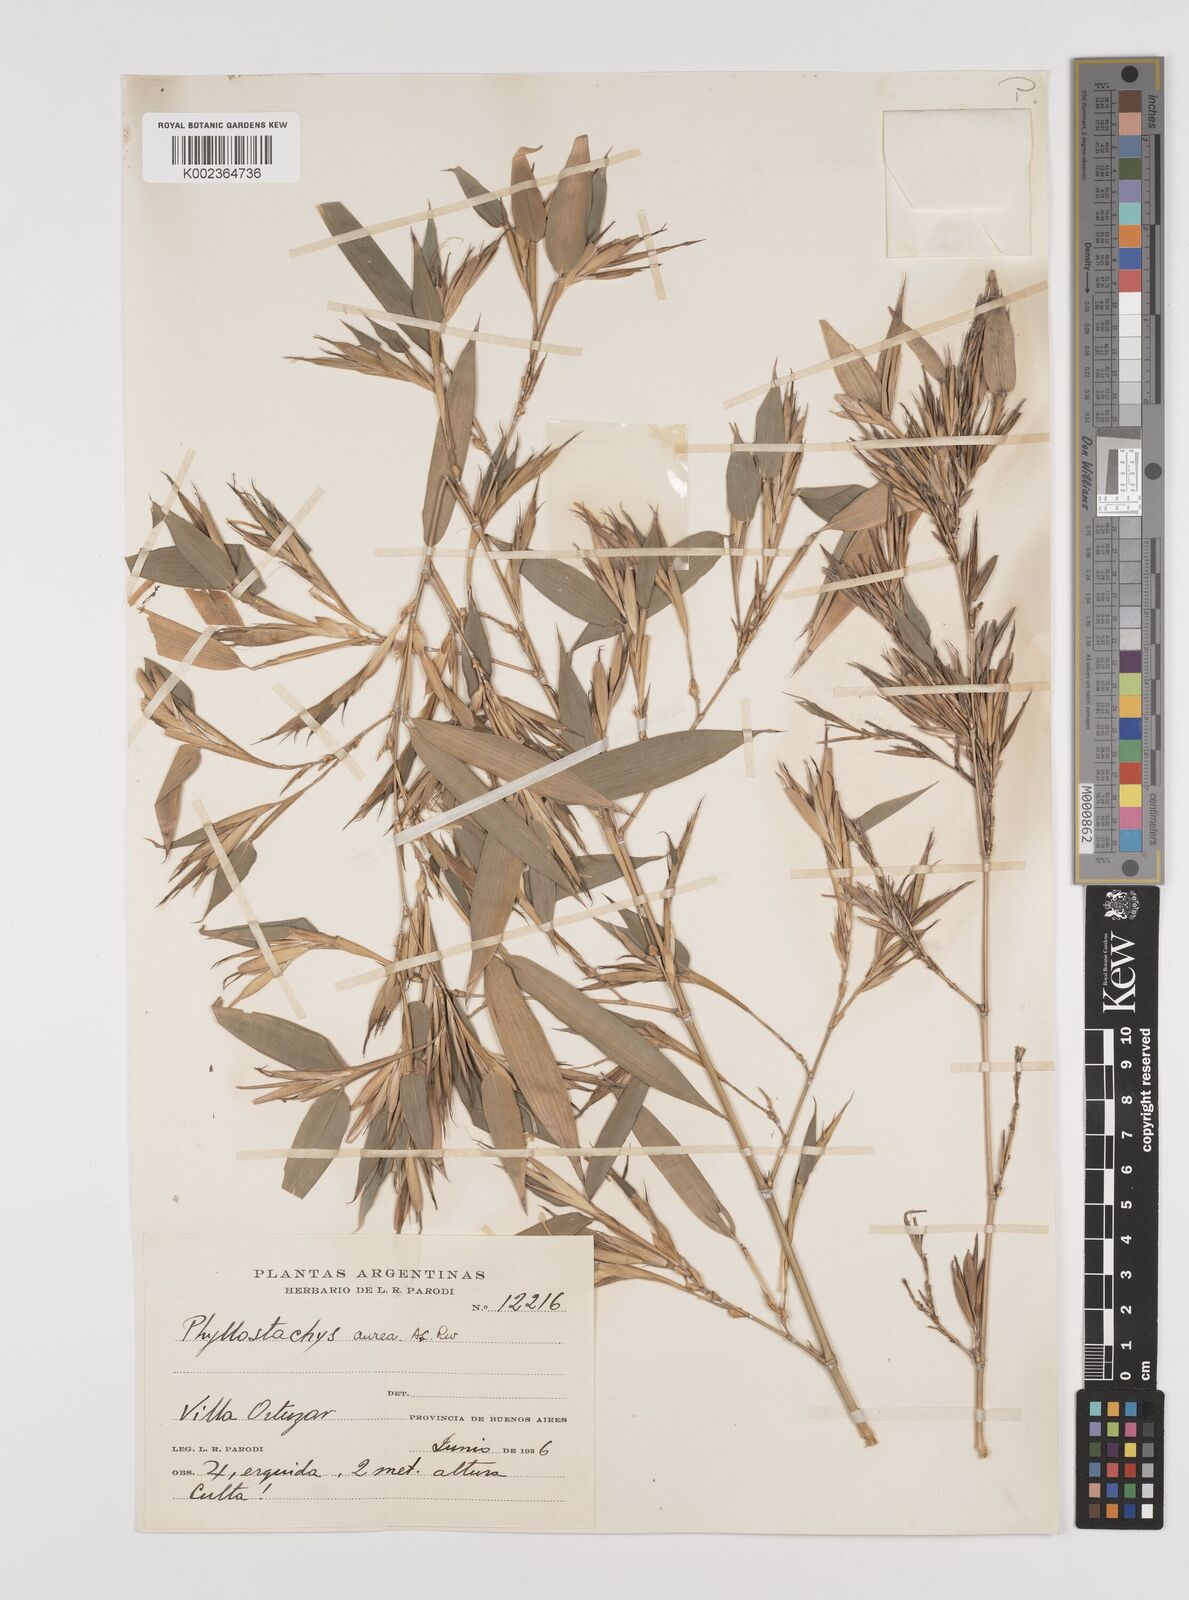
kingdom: Plantae
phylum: Tracheophyta
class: Liliopsida
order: Poales
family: Poaceae
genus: Phyllostachys
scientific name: Phyllostachys aurea
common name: Golden bamboo
